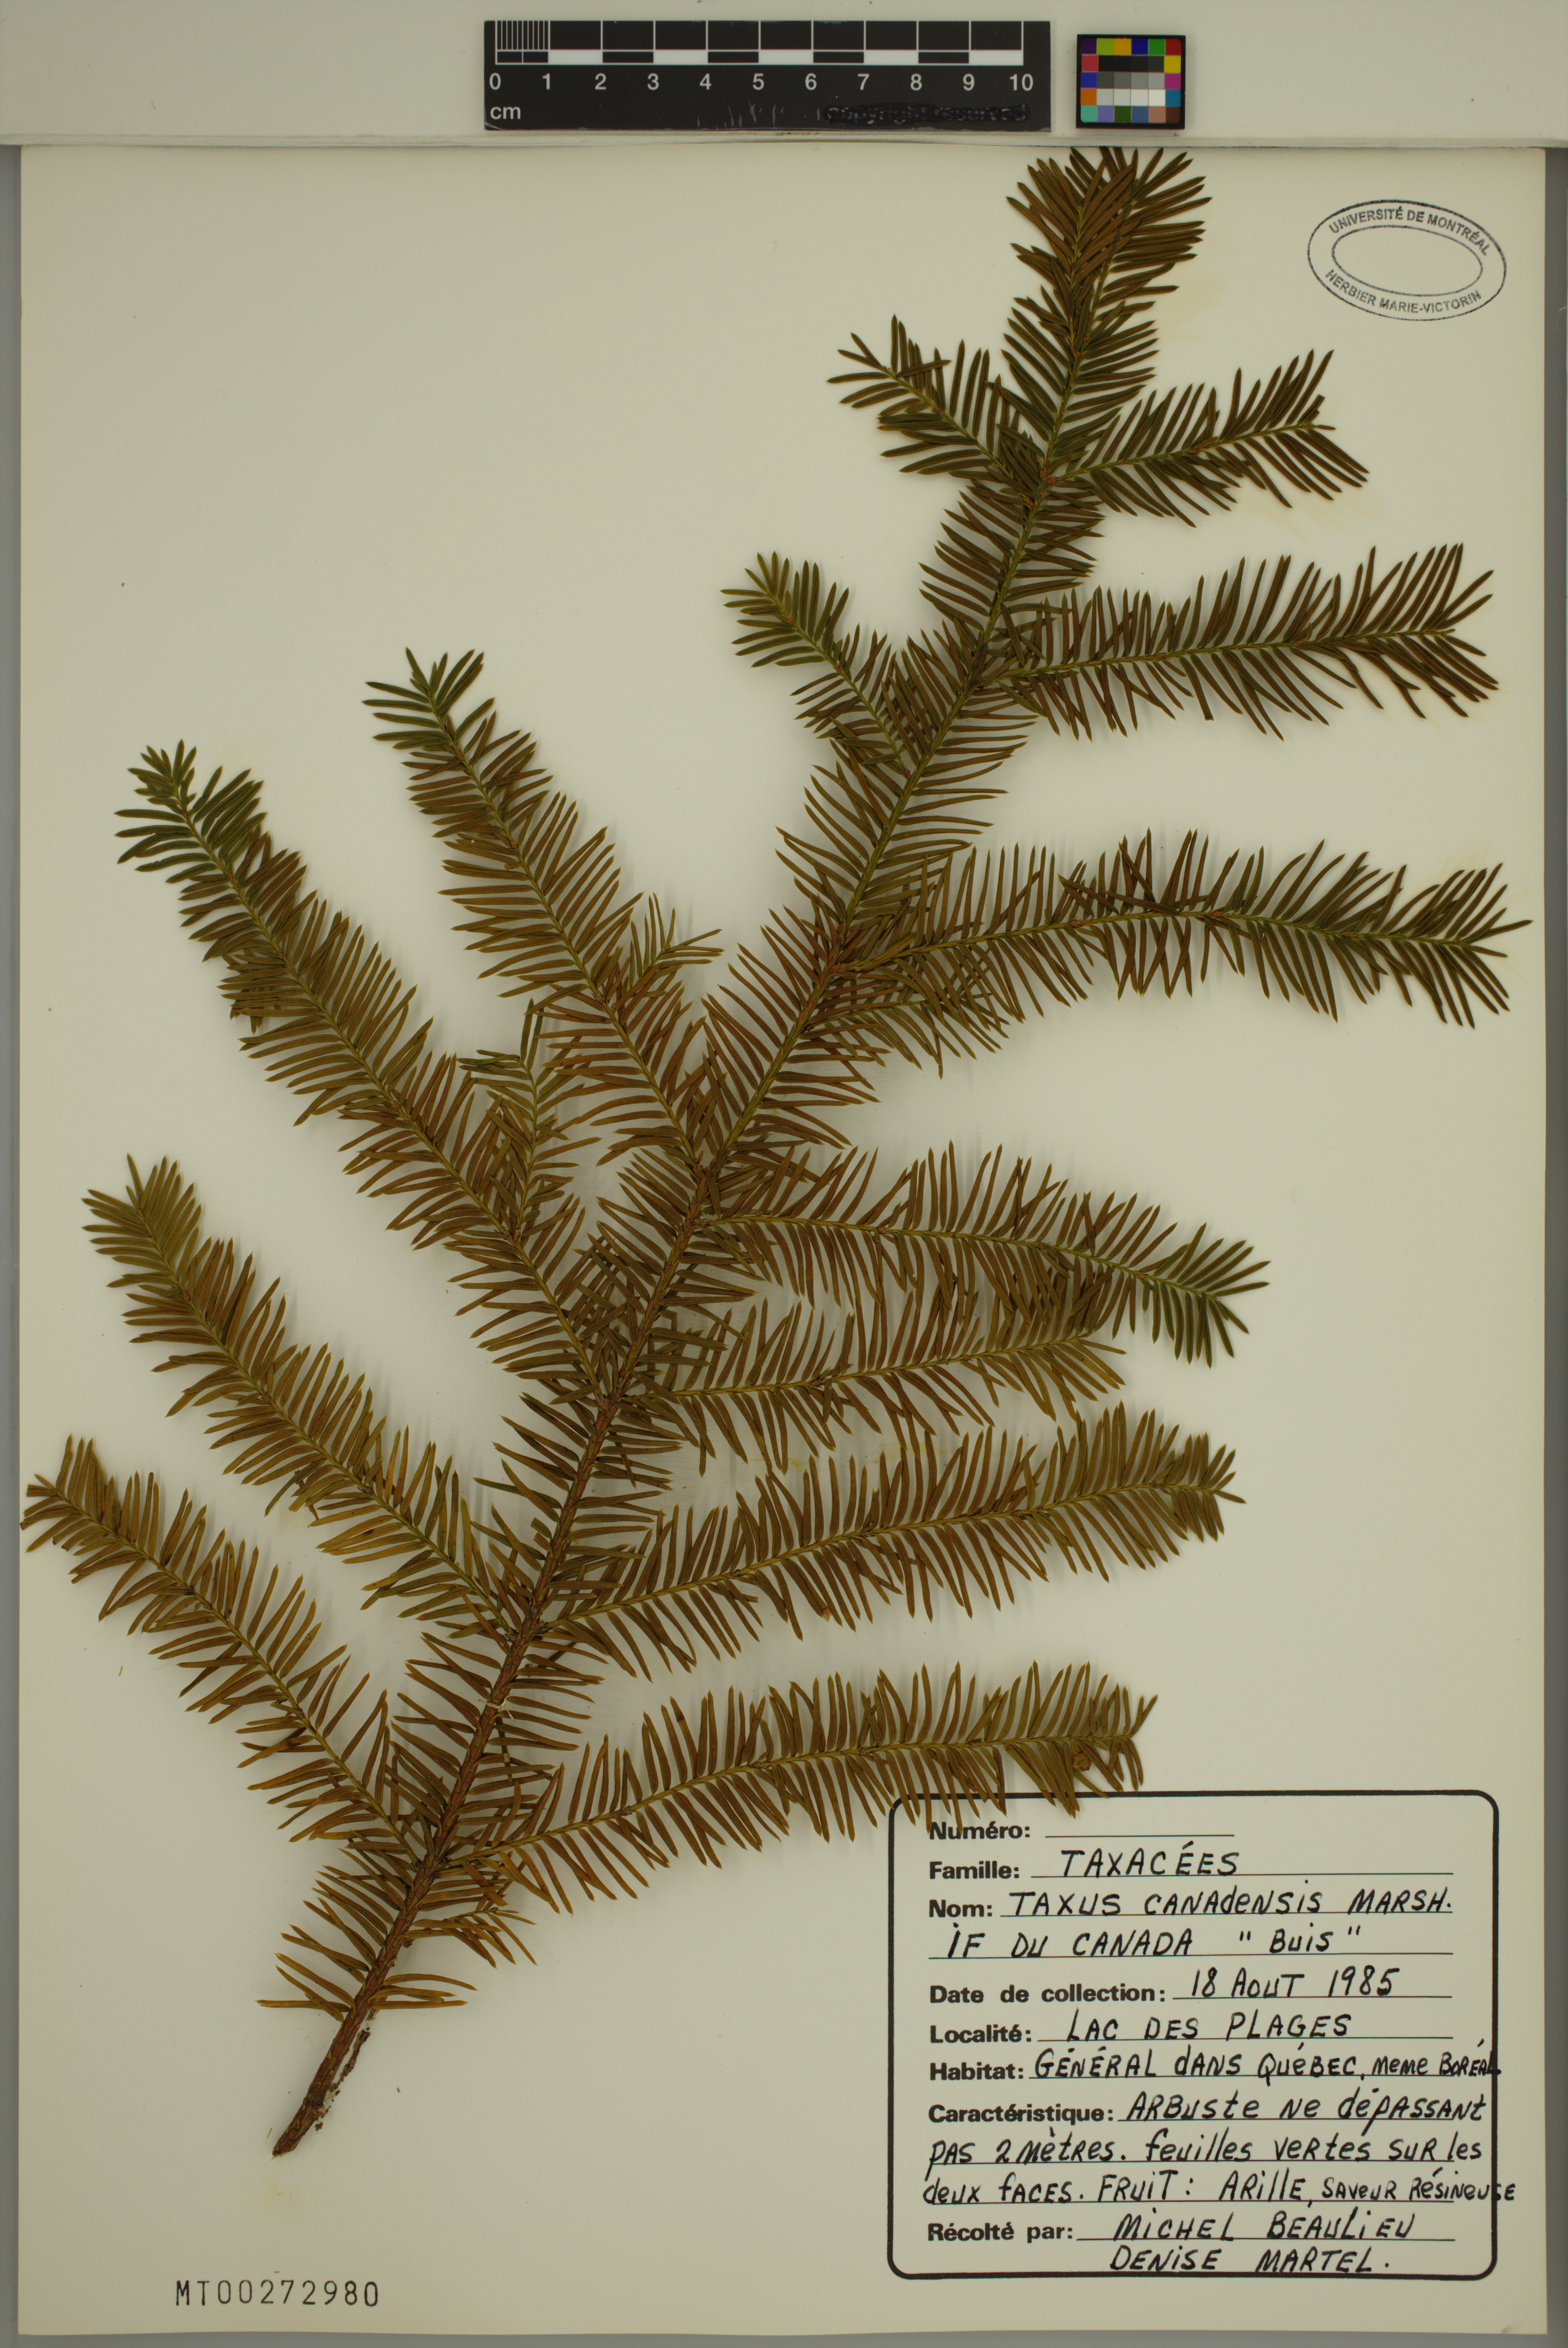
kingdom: Plantae
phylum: Tracheophyta
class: Pinopsida
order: Pinales
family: Taxaceae
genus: Taxus
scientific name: Taxus canadensis
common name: American yew
